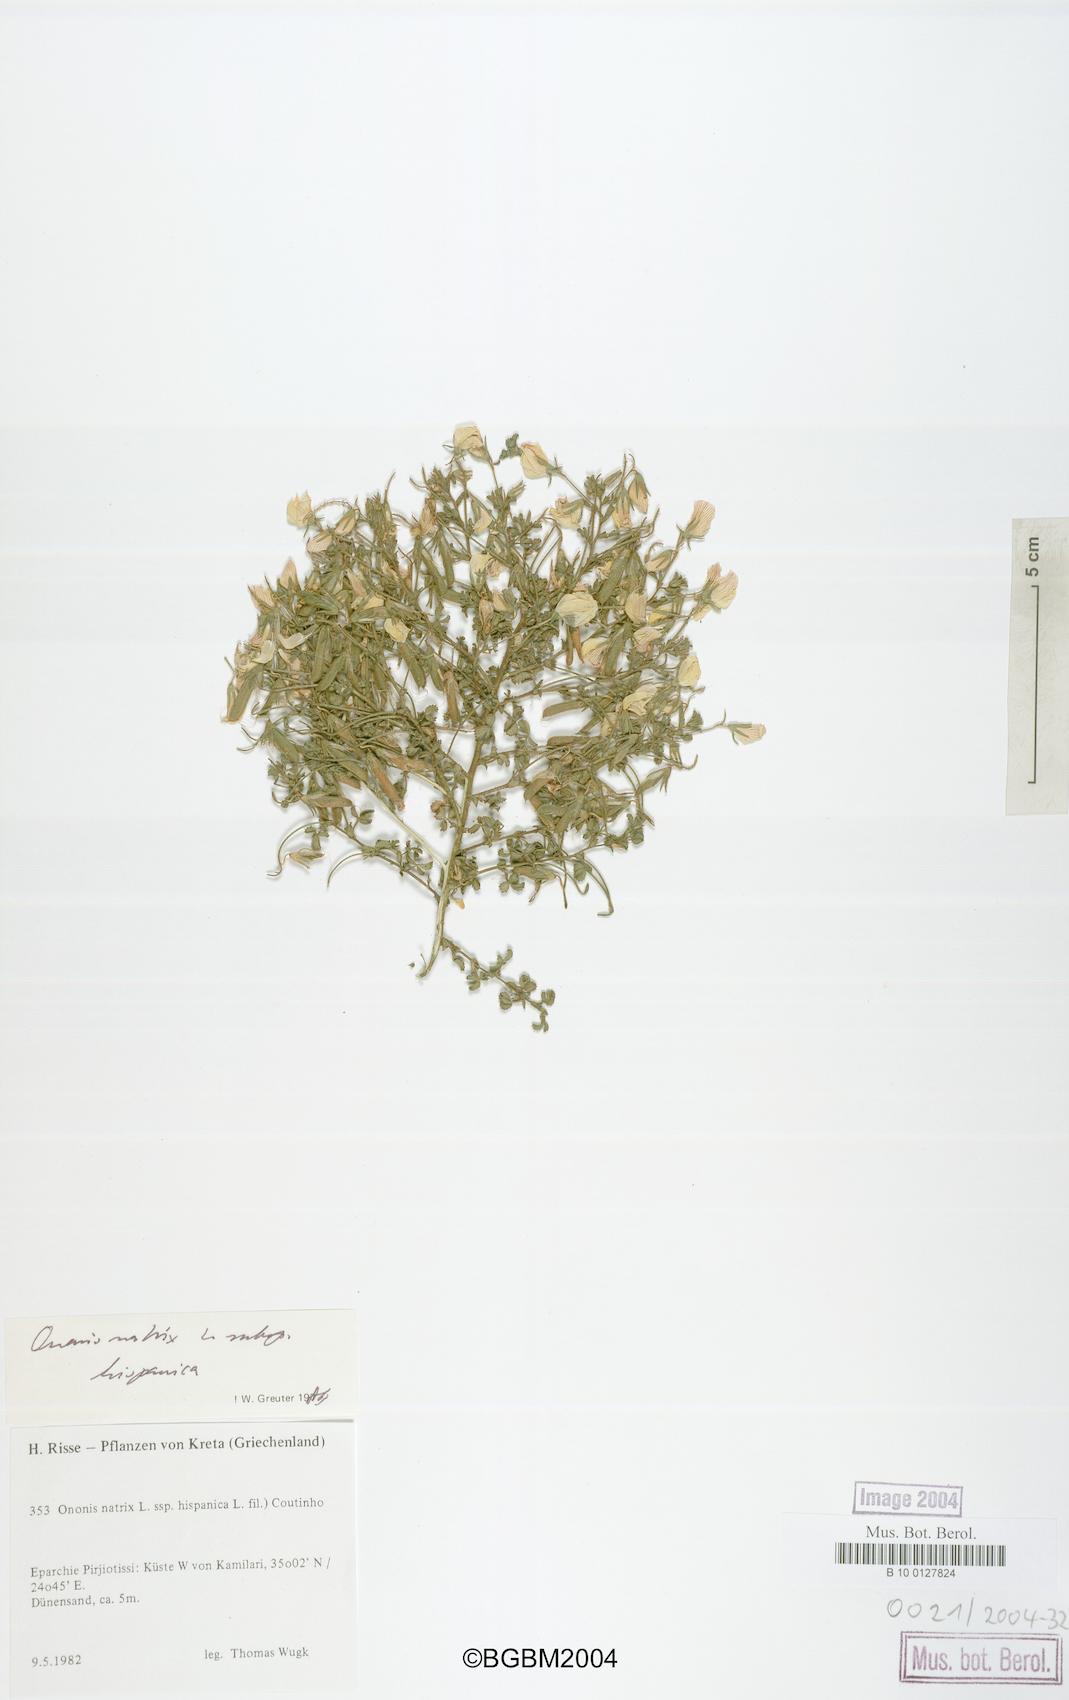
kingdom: Plantae
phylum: Tracheophyta
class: Magnoliopsida
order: Fabales
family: Fabaceae
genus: Ononis
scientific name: Ononis natrix
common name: Yellow restharrow
